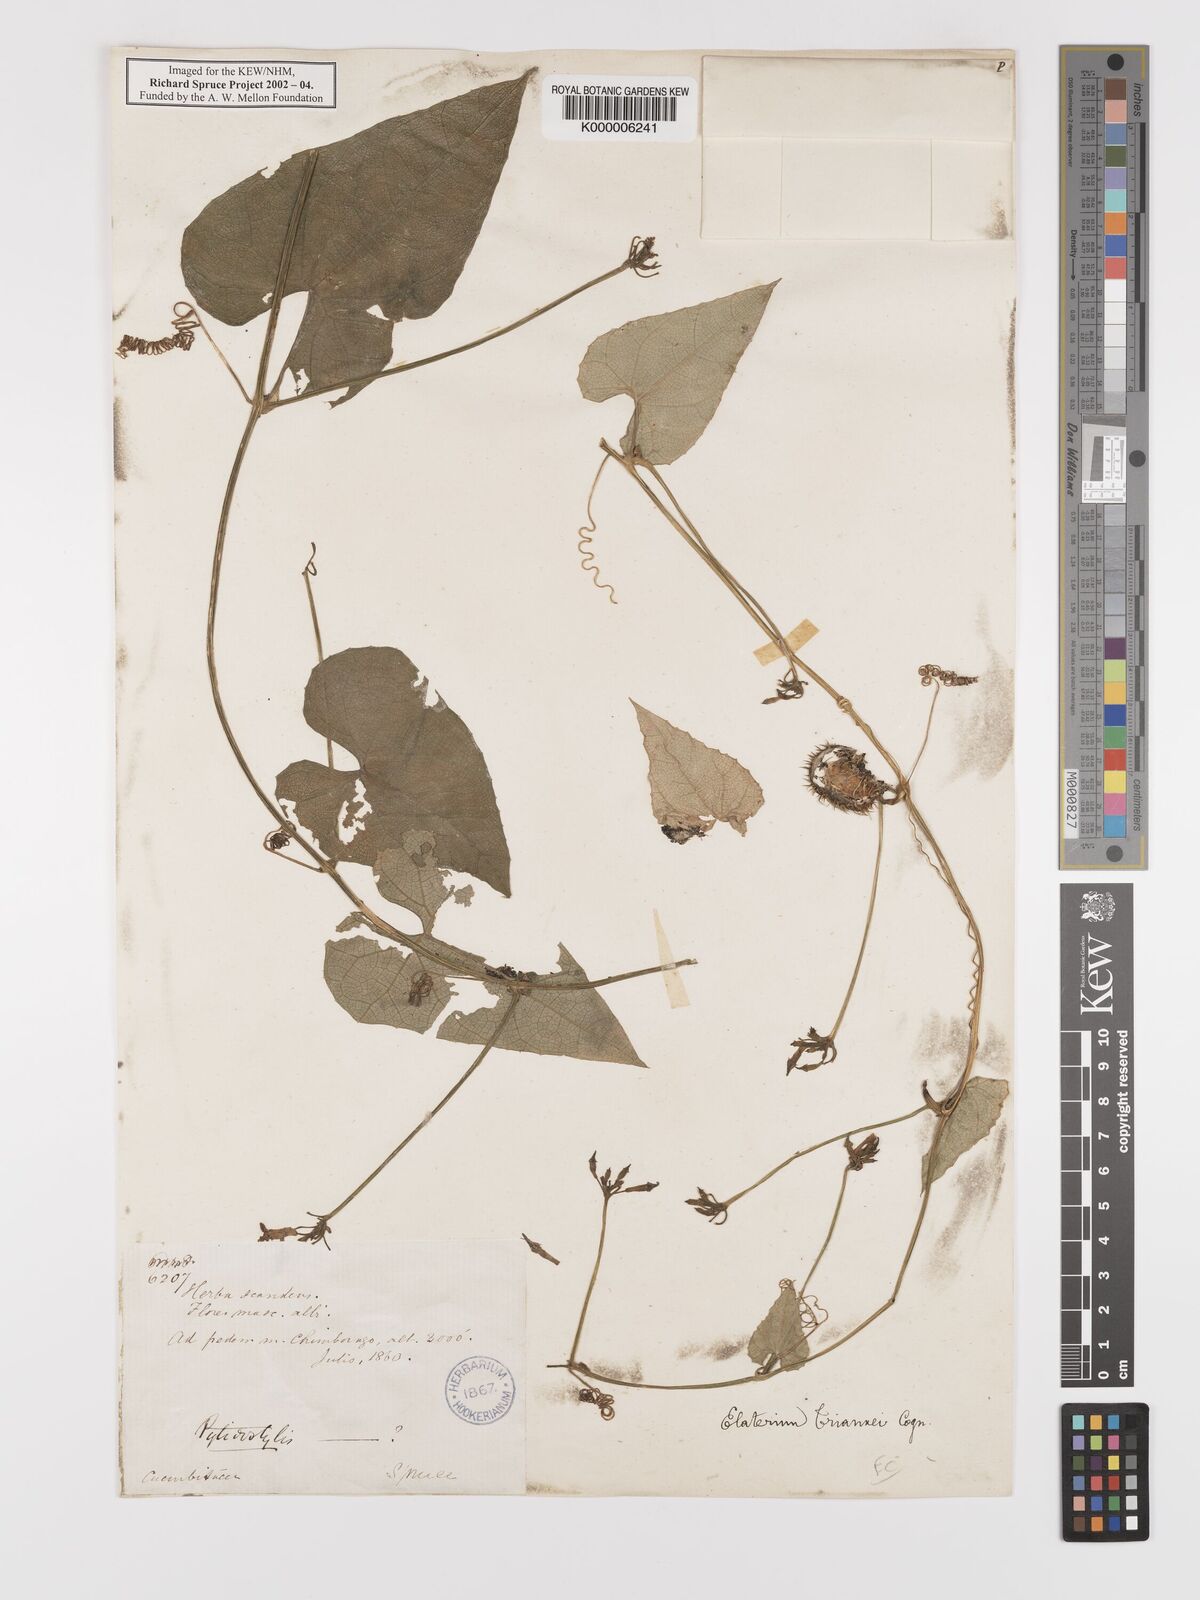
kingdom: Plantae
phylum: Tracheophyta
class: Magnoliopsida
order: Cucurbitales
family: Cucurbitaceae
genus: Elaterium
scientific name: Elaterium
